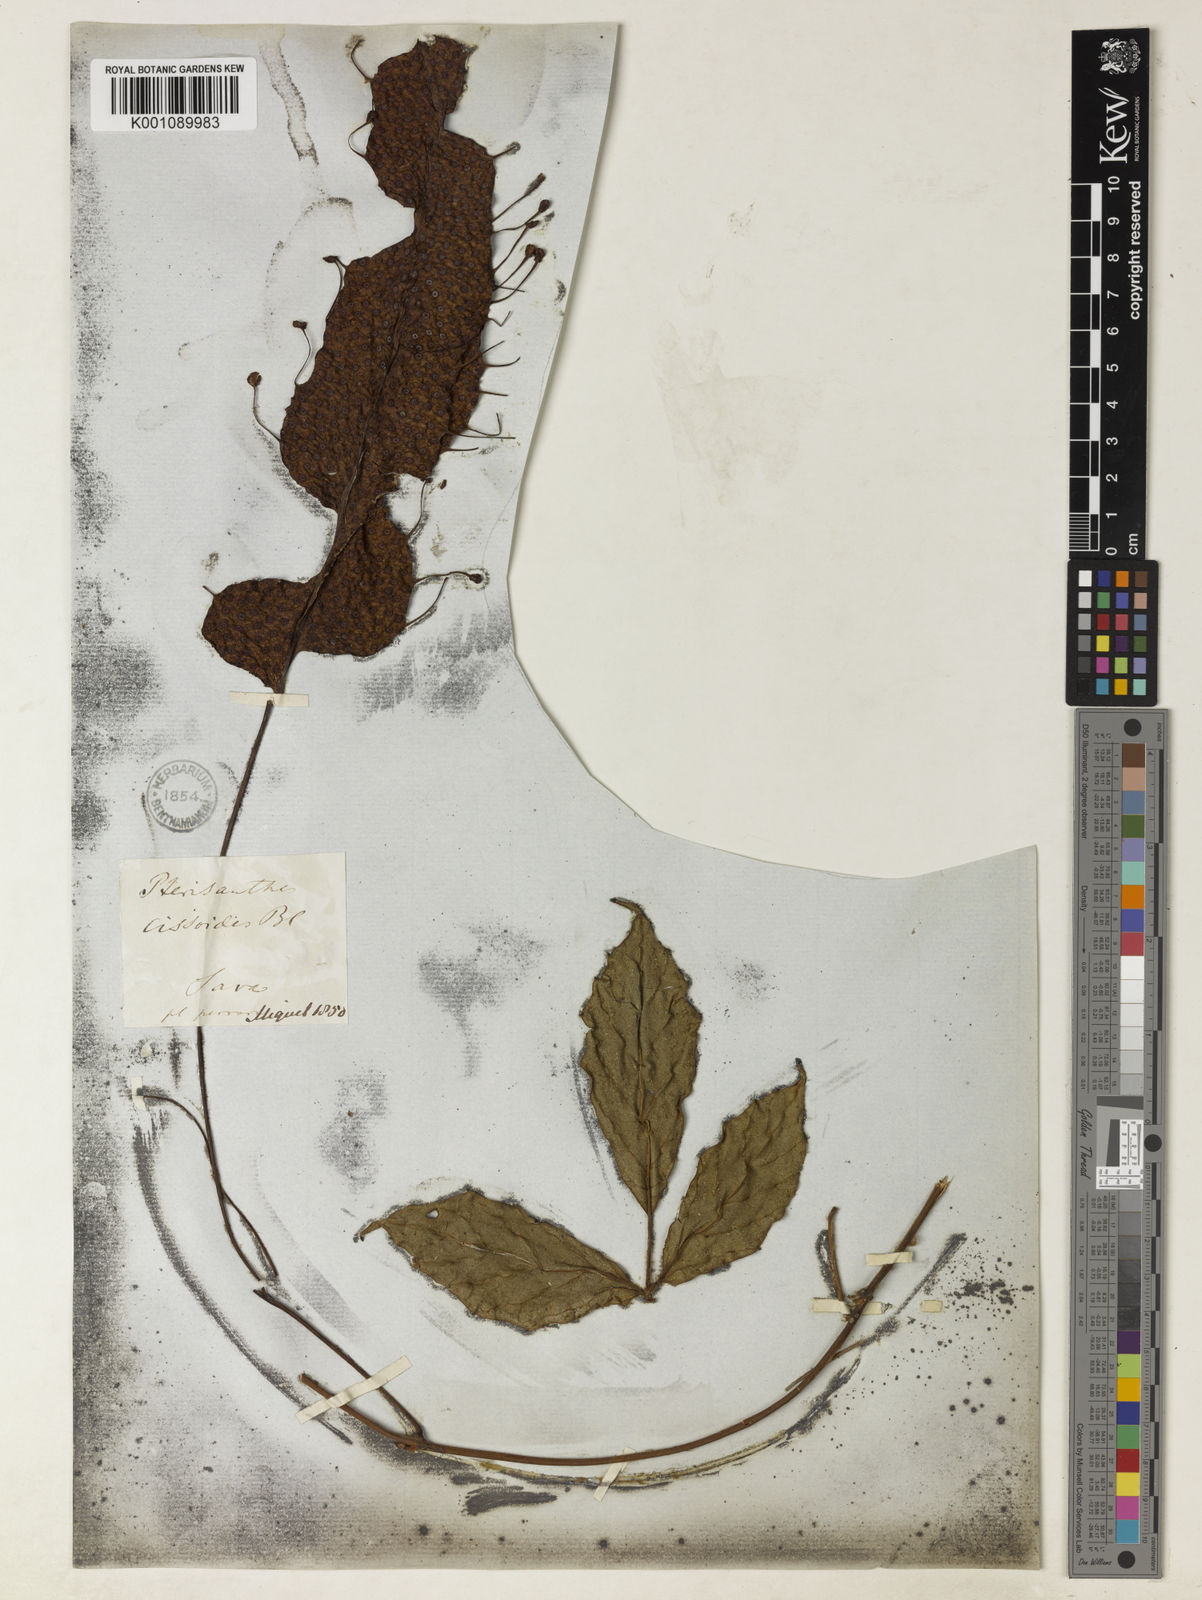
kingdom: Plantae
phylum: Tracheophyta
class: Magnoliopsida
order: Vitales
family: Vitaceae
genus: Pterisanthes
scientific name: Pterisanthes cissioides
